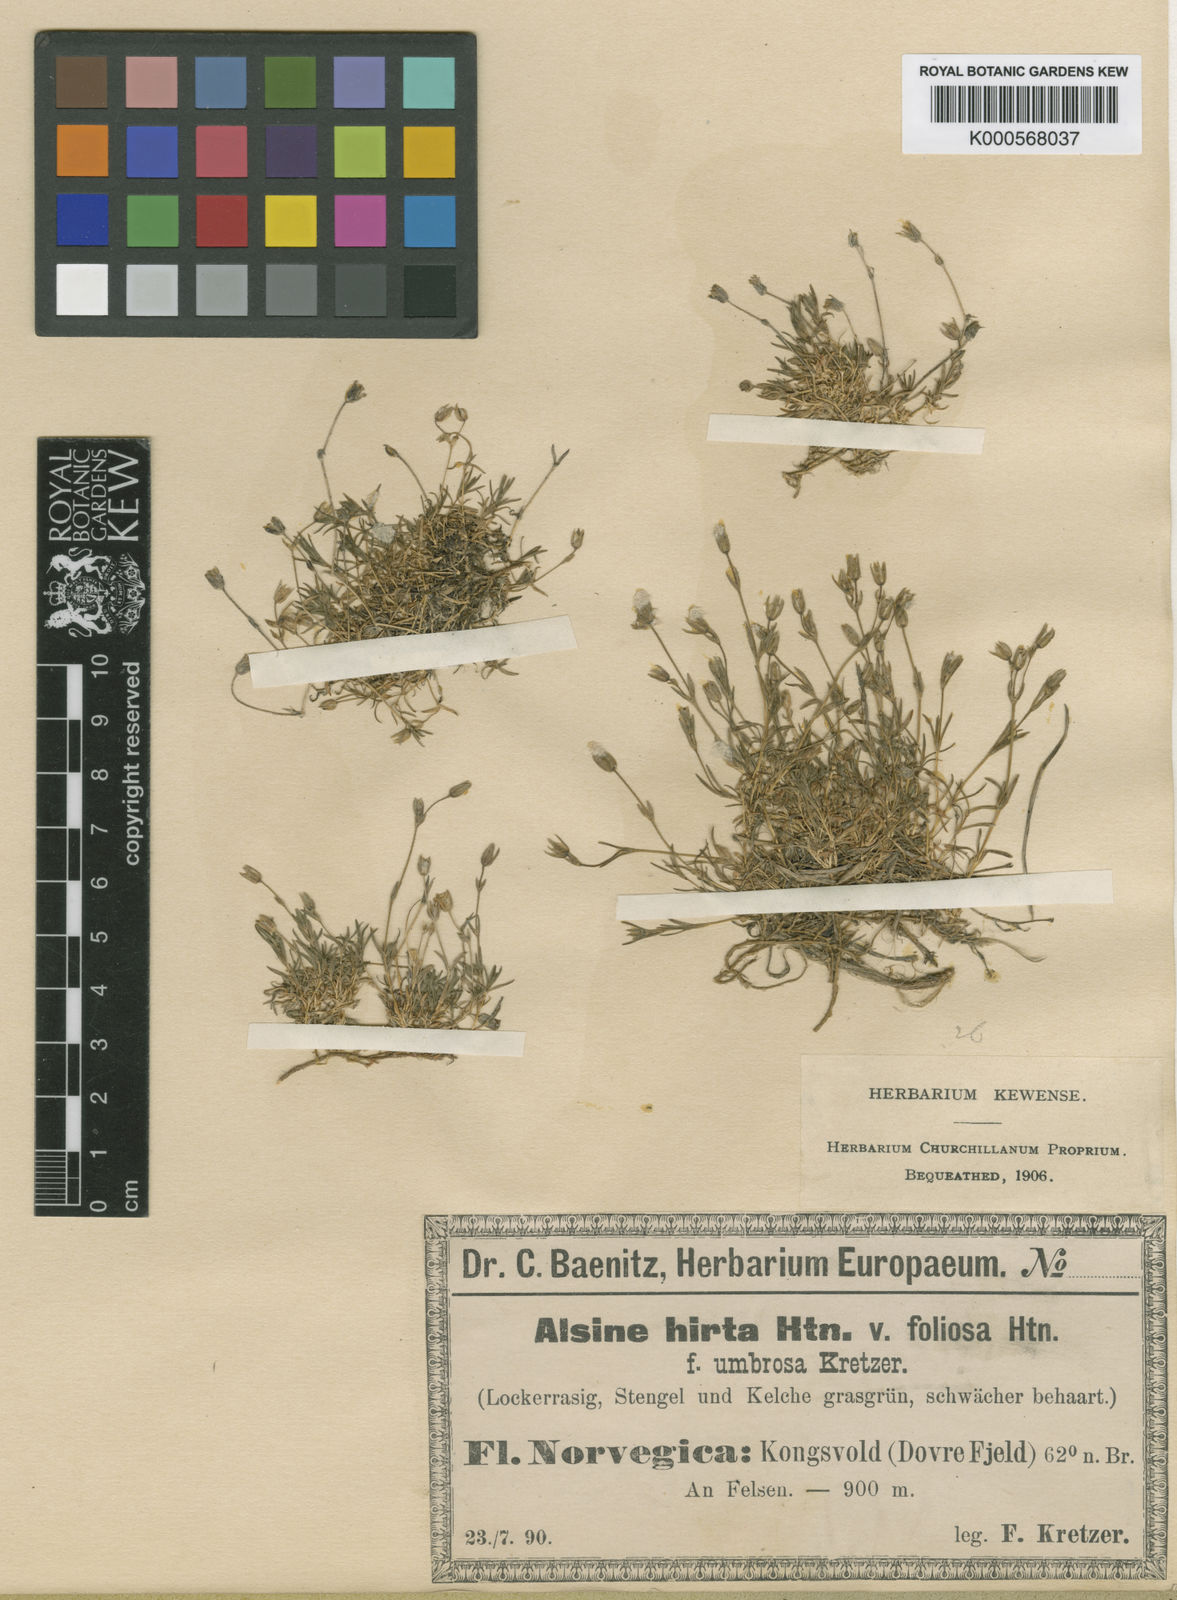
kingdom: Plantae
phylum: Tracheophyta
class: Magnoliopsida
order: Caryophyllales
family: Caryophyllaceae
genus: Sabulina
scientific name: Sabulina rubella
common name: Beautiful sandwort
